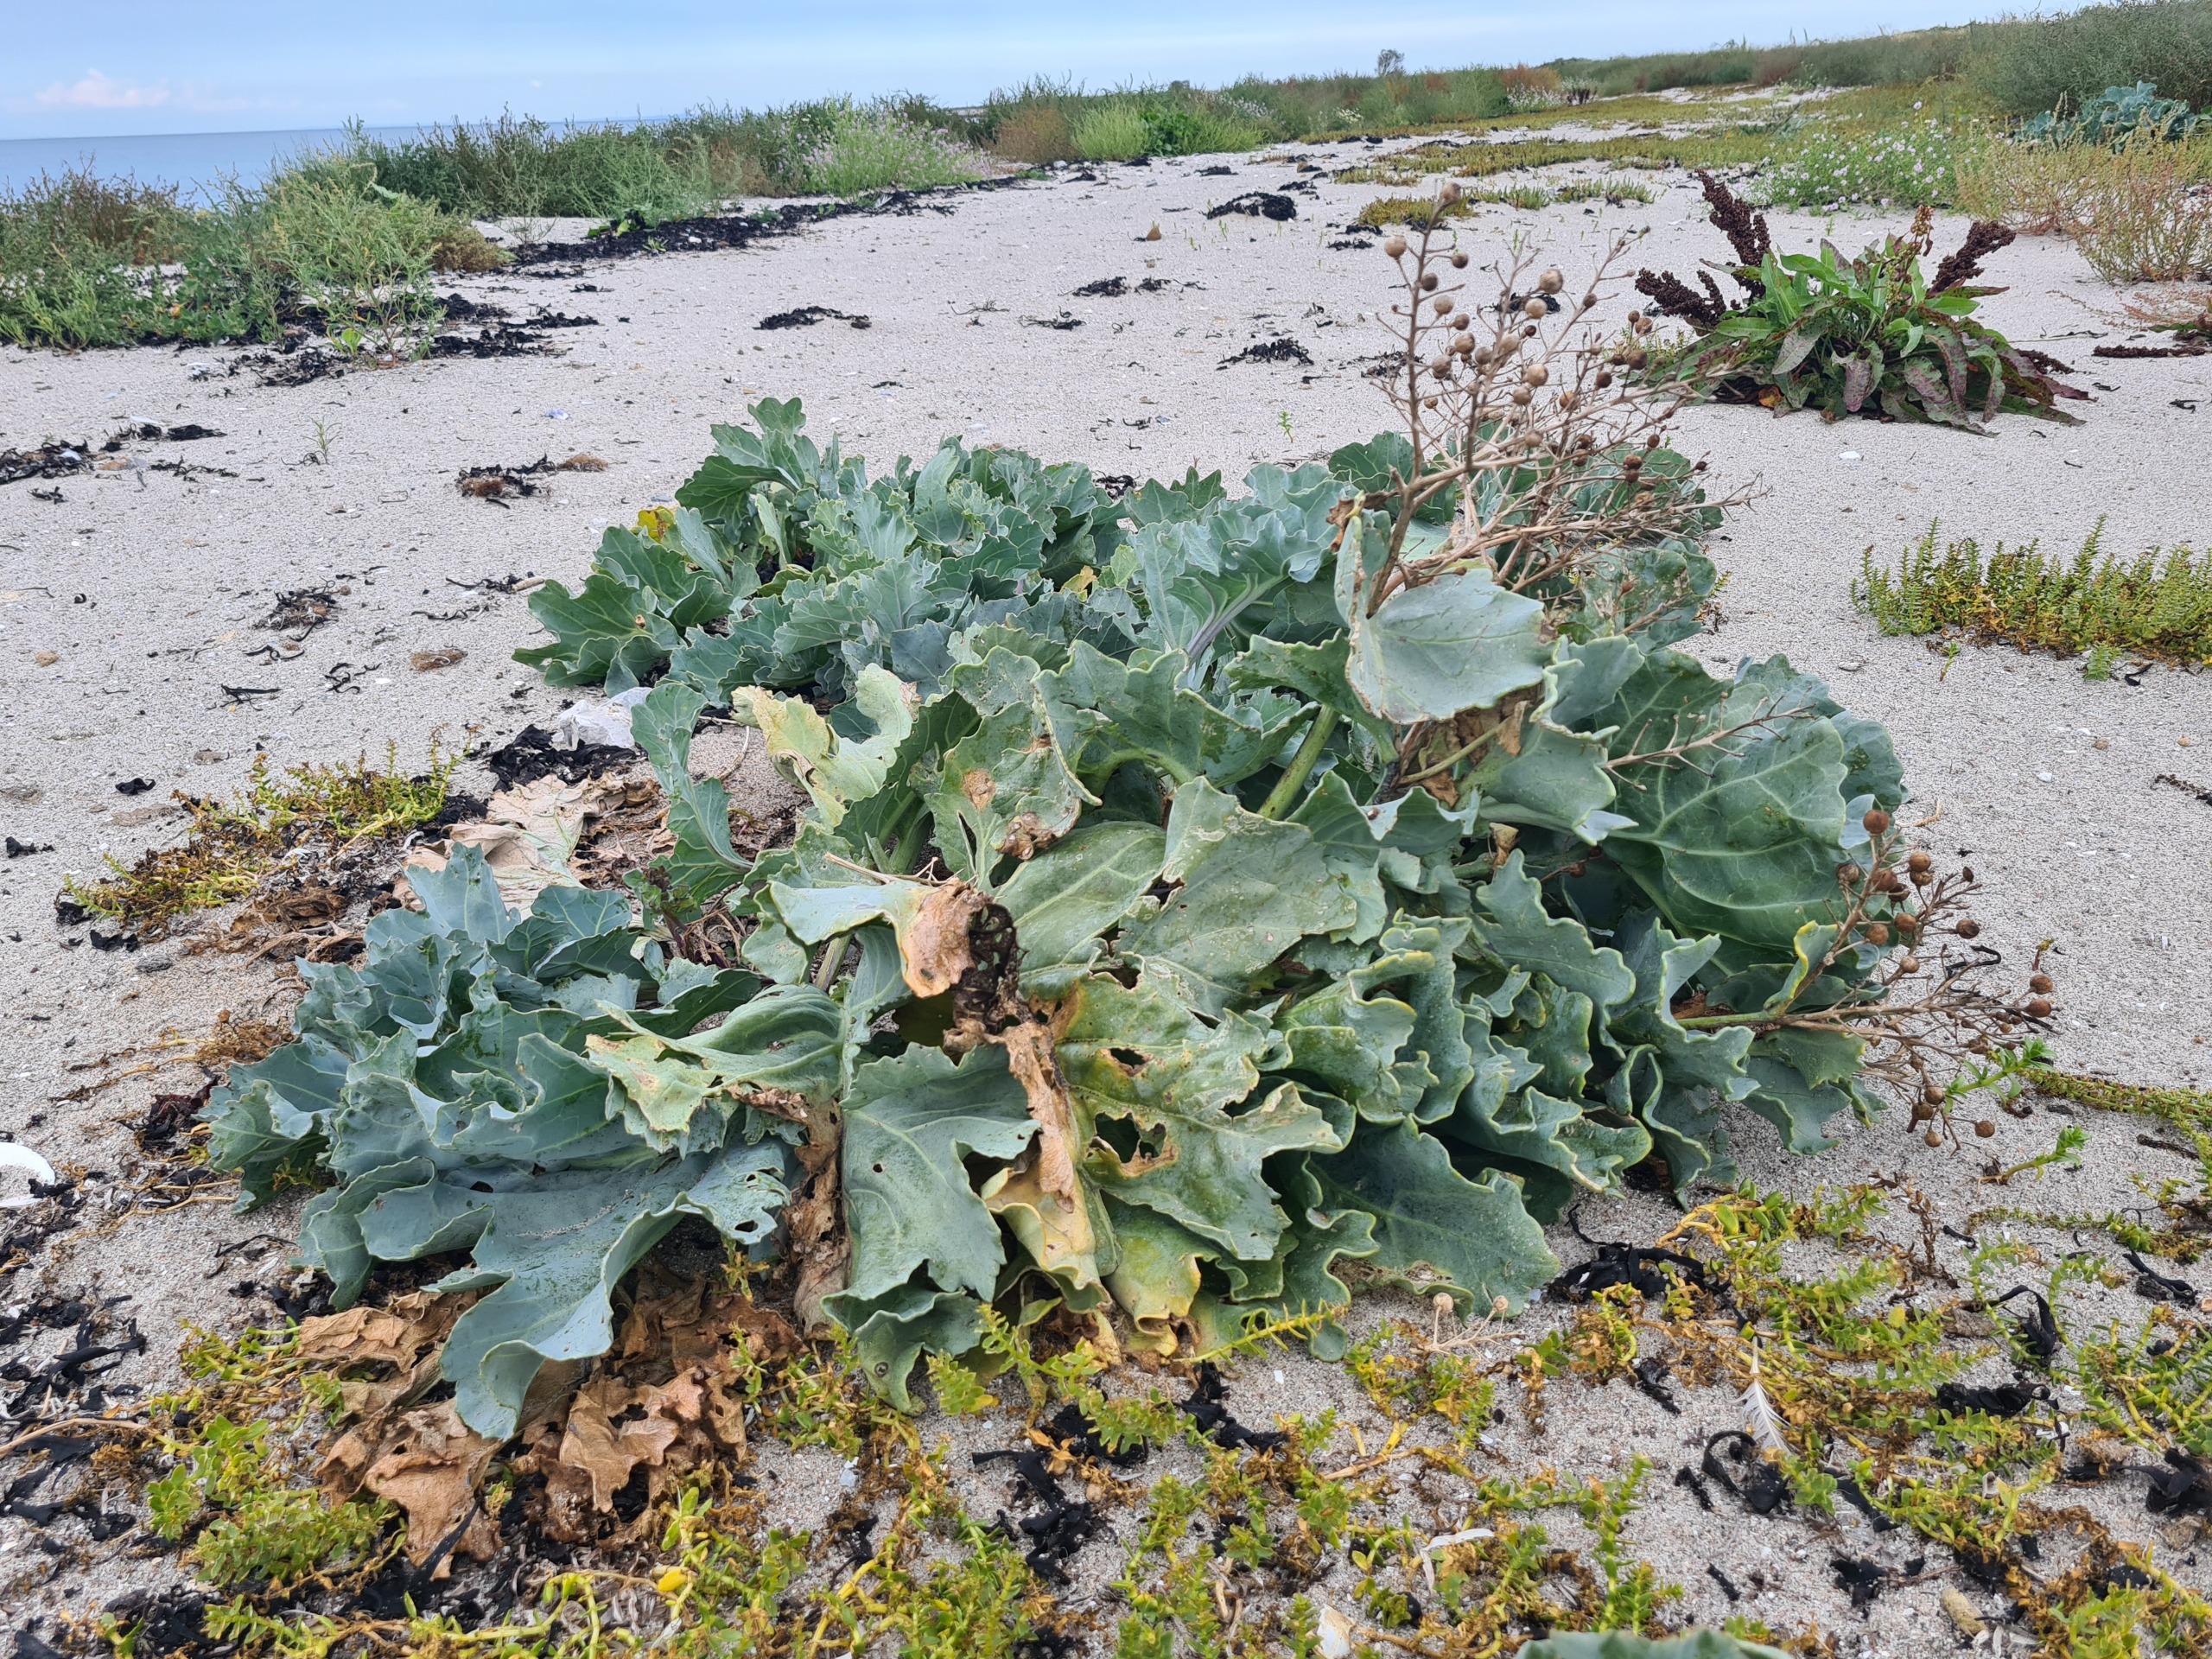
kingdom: Plantae
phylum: Tracheophyta
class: Magnoliopsida
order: Brassicales
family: Brassicaceae
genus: Crambe
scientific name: Crambe maritima
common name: Strandkål
